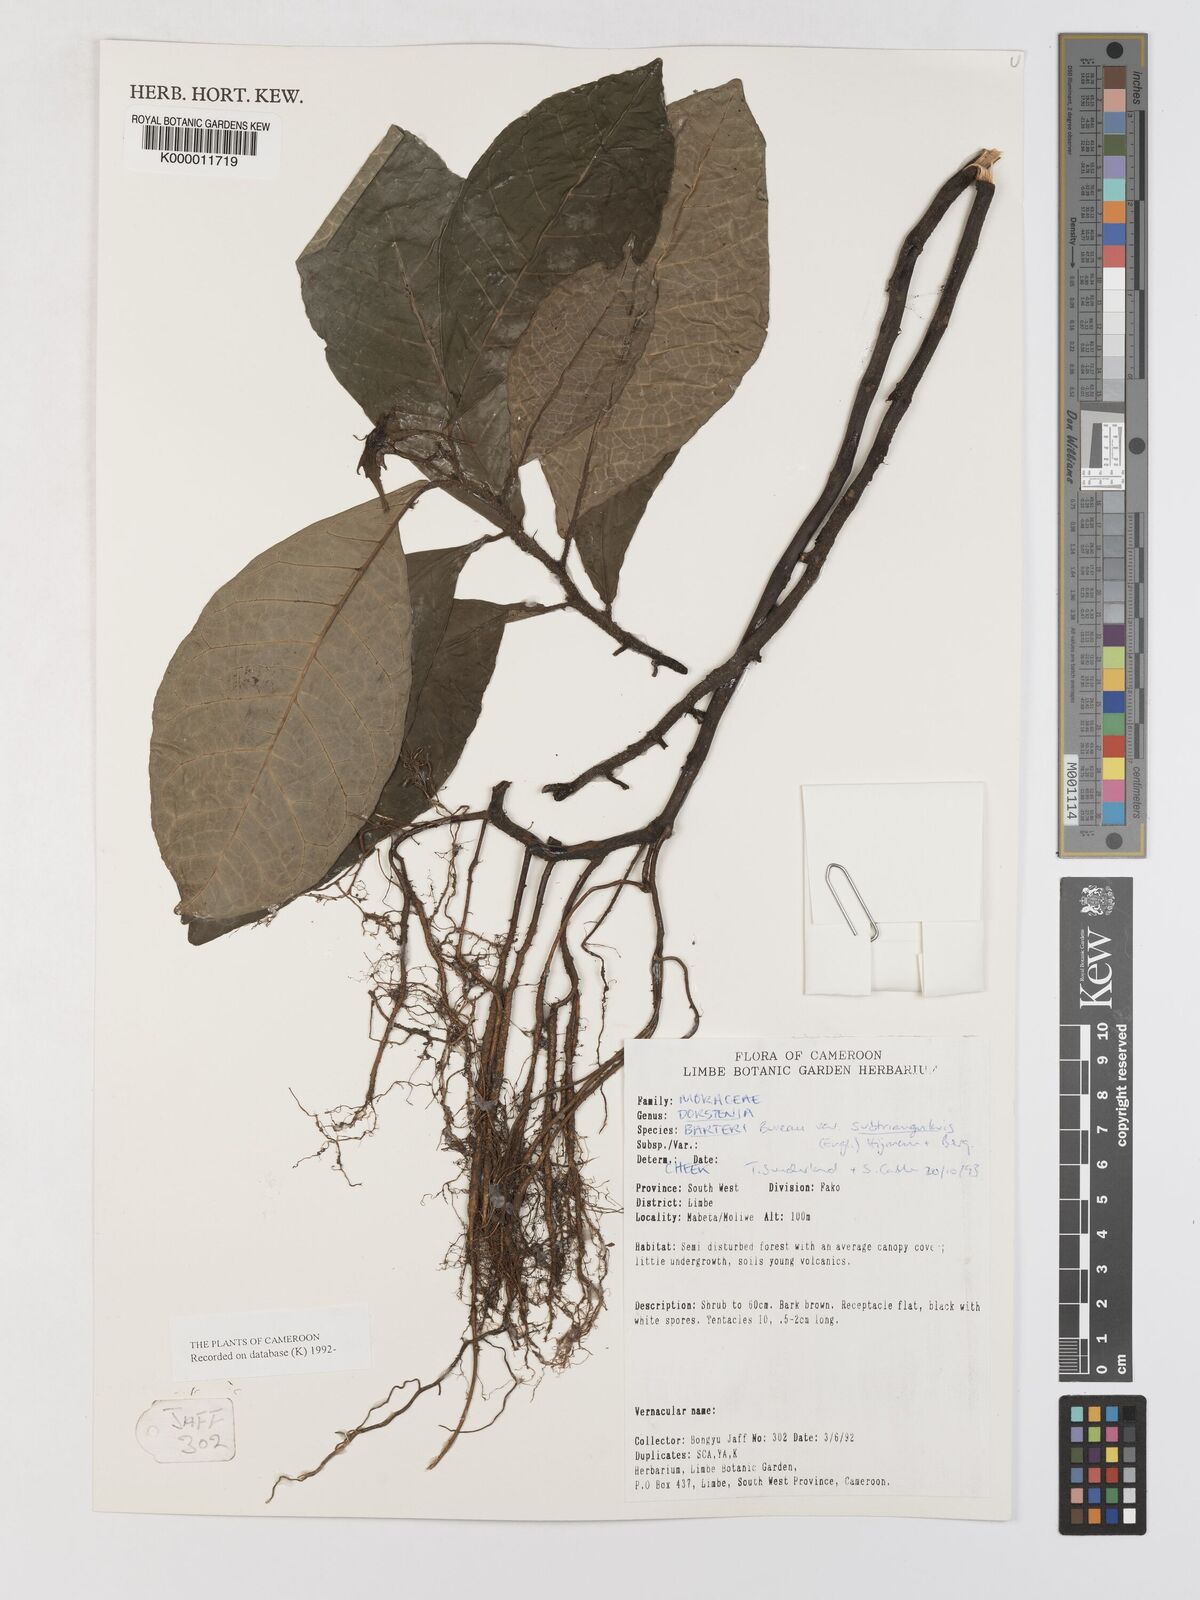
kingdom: Plantae
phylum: Tracheophyta
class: Magnoliopsida
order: Rosales
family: Moraceae
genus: Dorstenia
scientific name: Dorstenia barteri
